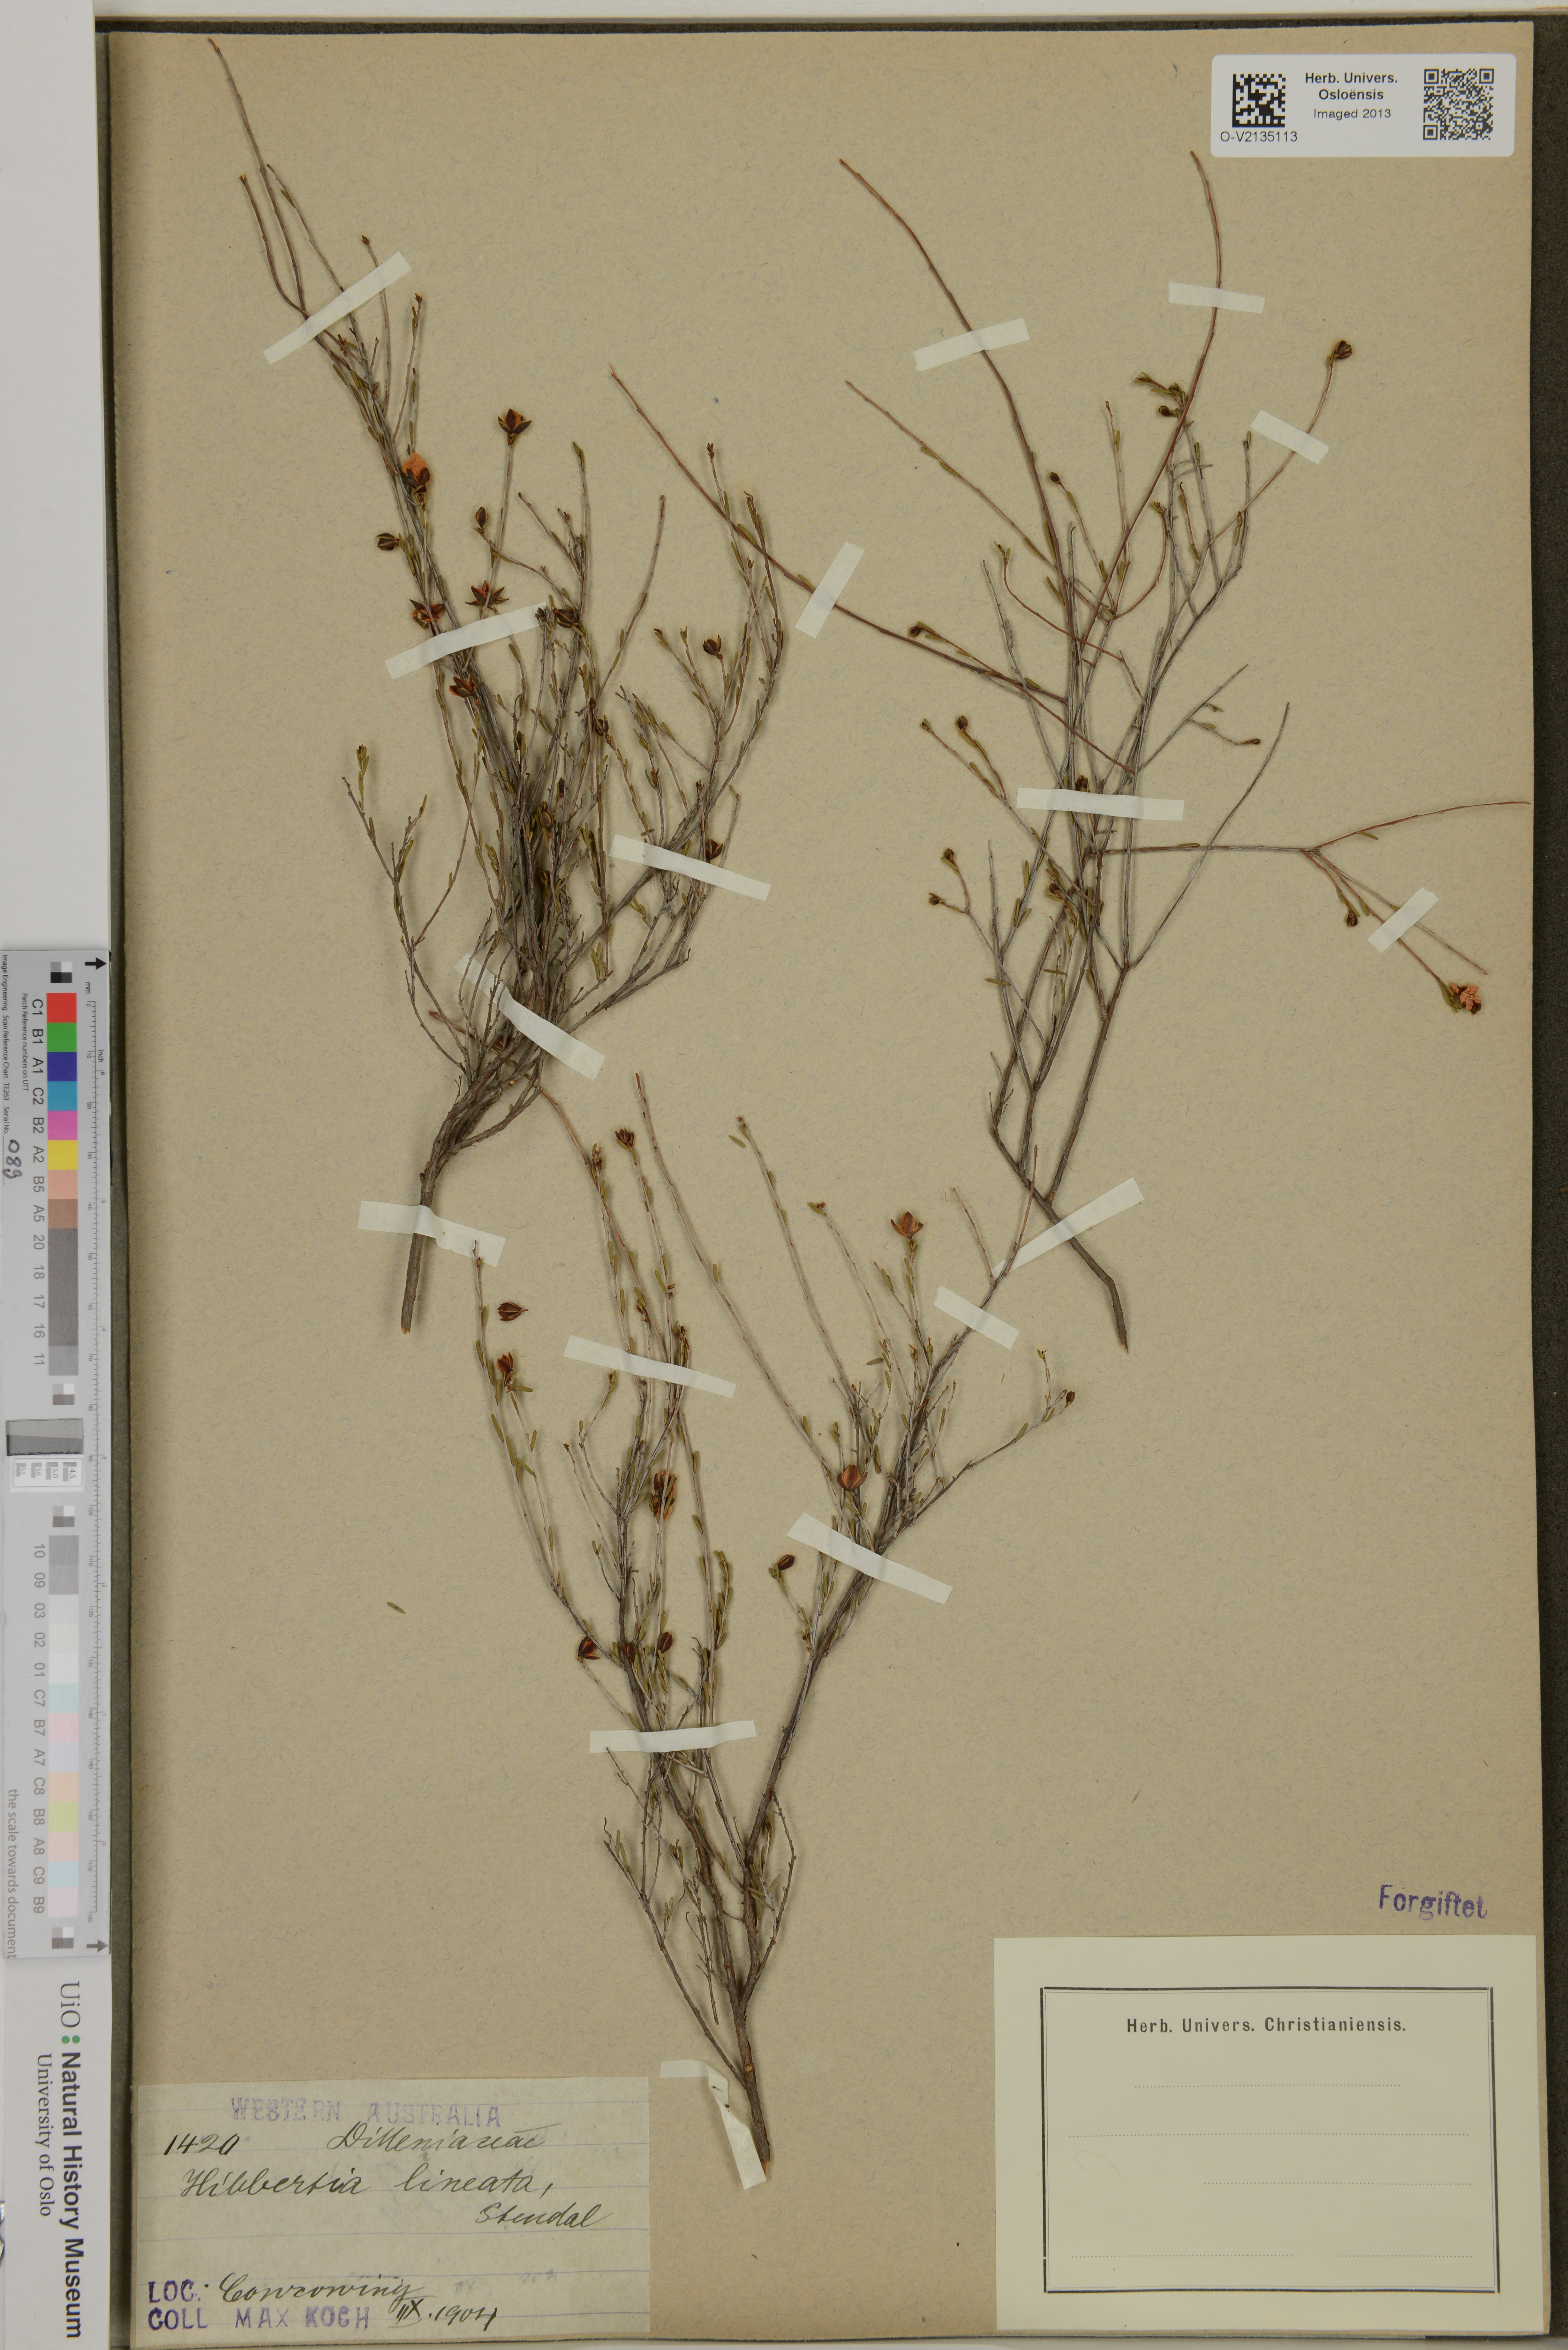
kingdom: Plantae
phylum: Tracheophyta
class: Magnoliopsida
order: Dilleniales
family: Dilleniaceae
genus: Hibbertia
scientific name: Hibbertia lineata
